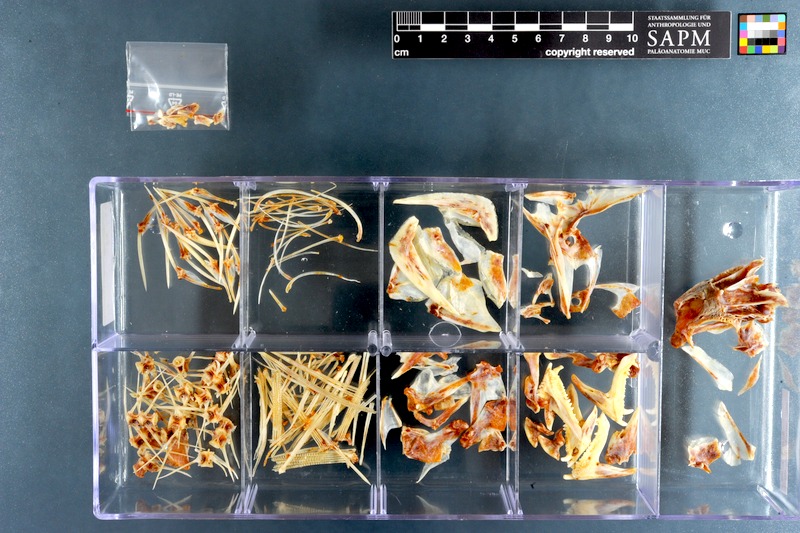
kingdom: Animalia
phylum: Chordata
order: Perciformes
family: Labridae
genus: Bodianus
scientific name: Bodianus bilunulatus
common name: Tarry hogfish
